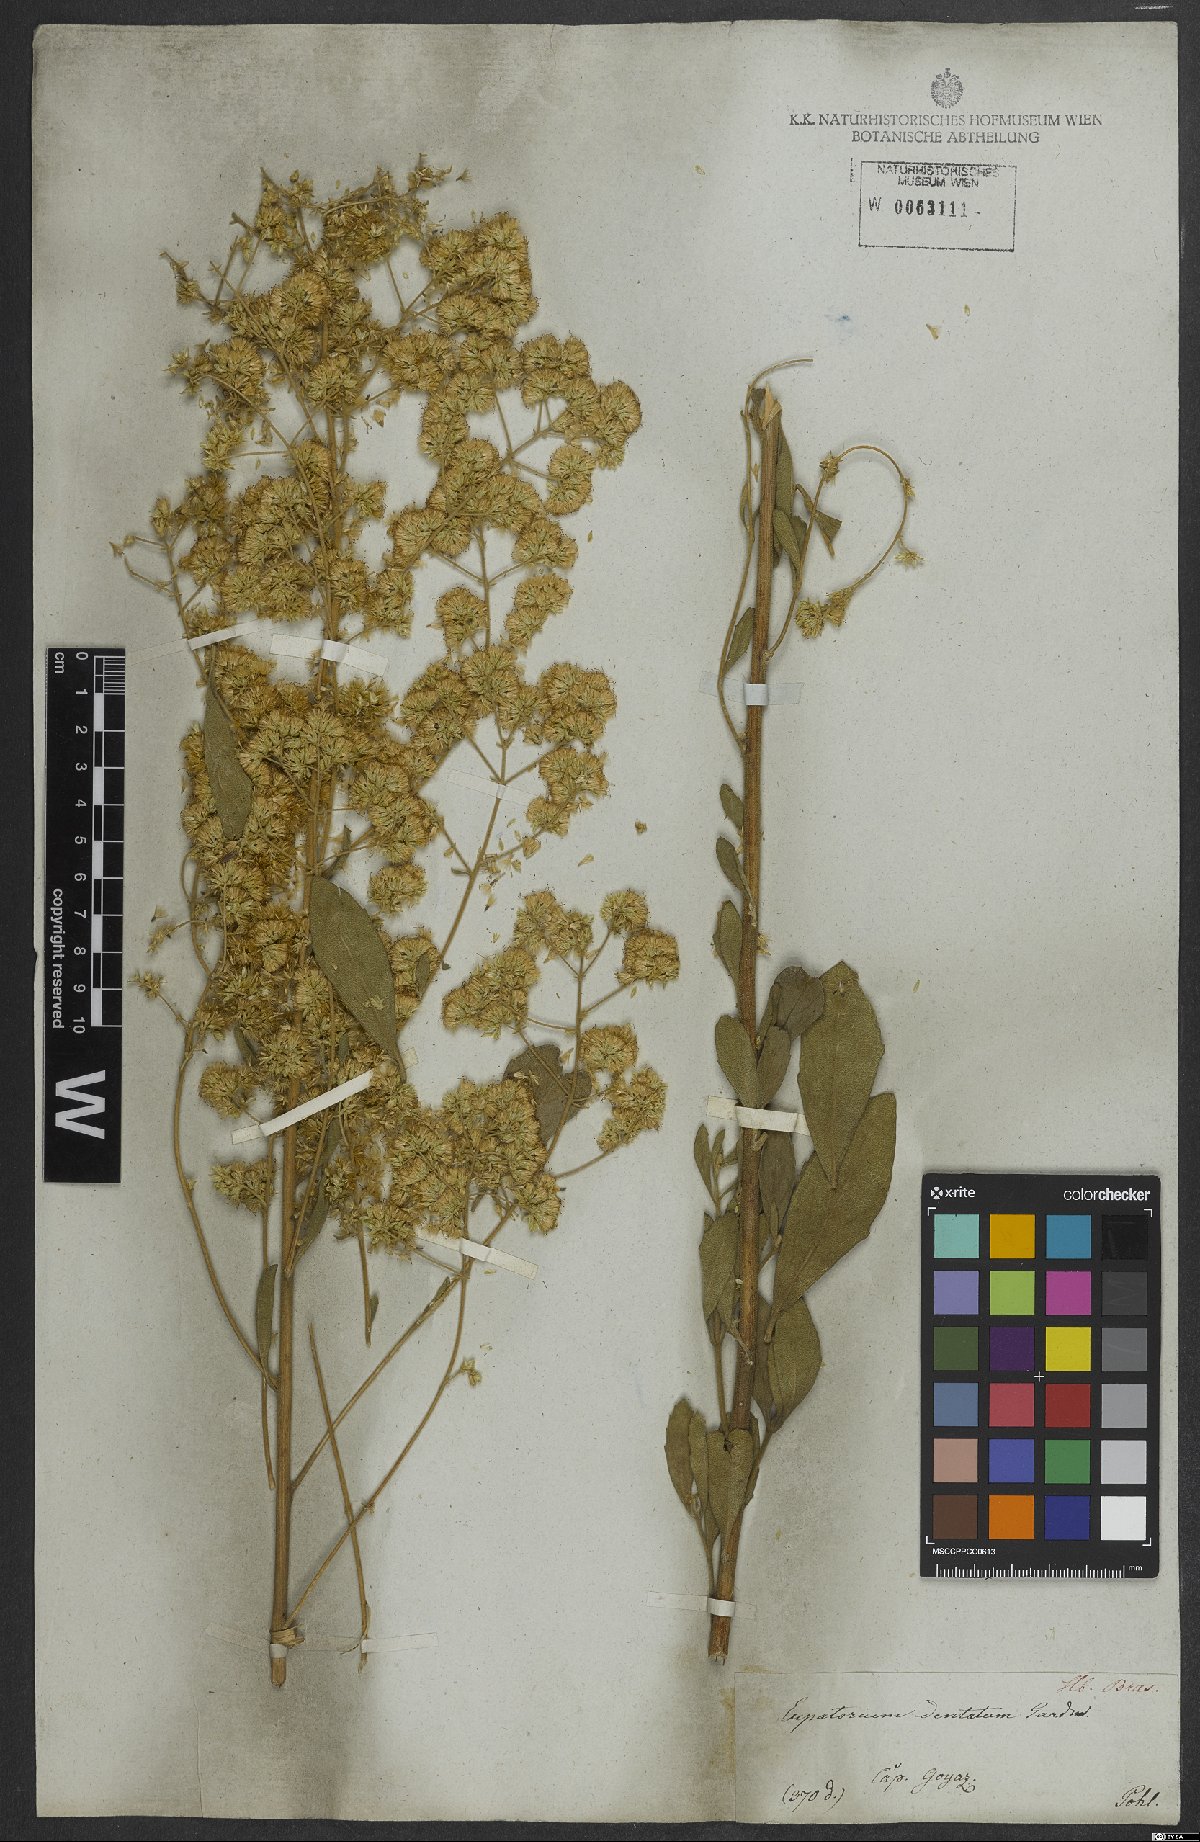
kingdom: Plantae
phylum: Tracheophyta
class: Magnoliopsida
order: Asterales
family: Asteraceae
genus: Stomatanthes
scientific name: Stomatanthes dentatus
